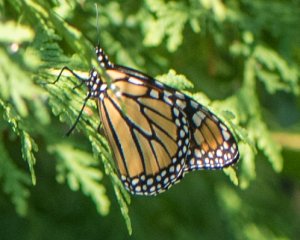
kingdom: Animalia
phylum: Arthropoda
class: Insecta
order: Lepidoptera
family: Nymphalidae
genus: Danaus
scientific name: Danaus plexippus
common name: Monarch
